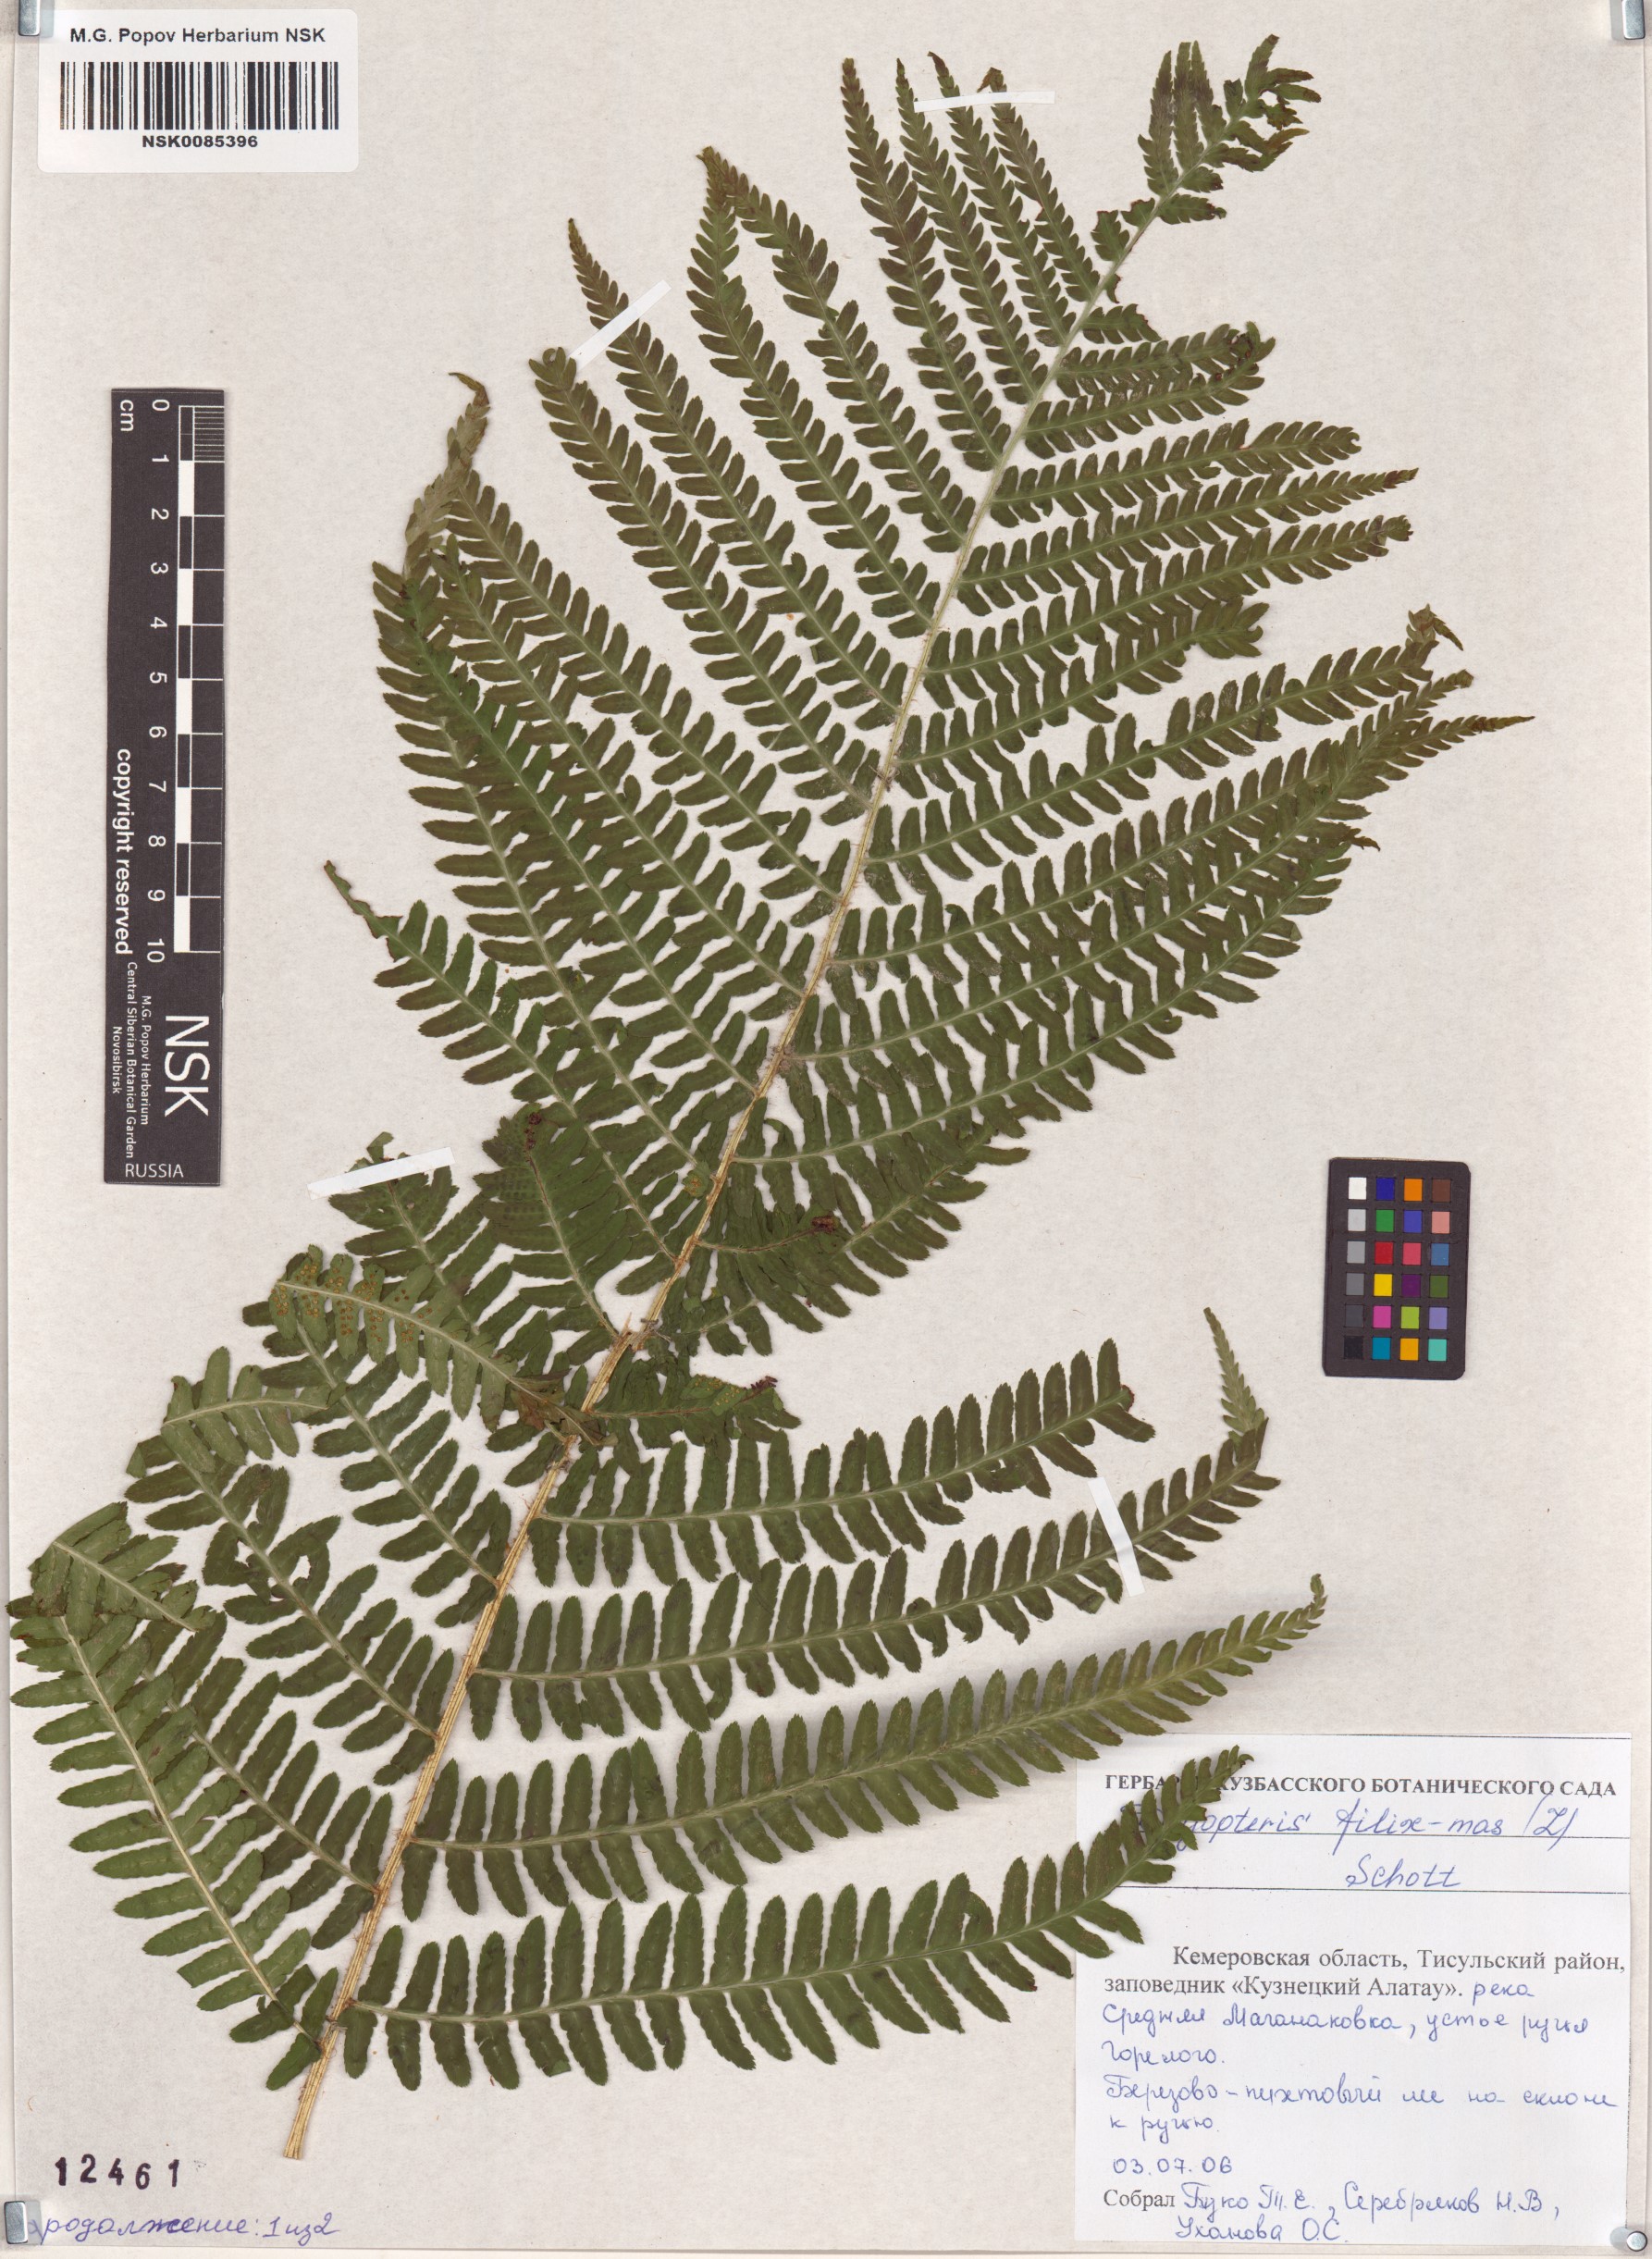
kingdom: Plantae
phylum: Tracheophyta
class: Polypodiopsida
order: Polypodiales
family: Dryopteridaceae
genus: Dryopteris
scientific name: Dryopteris filix-mas
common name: Male fern
